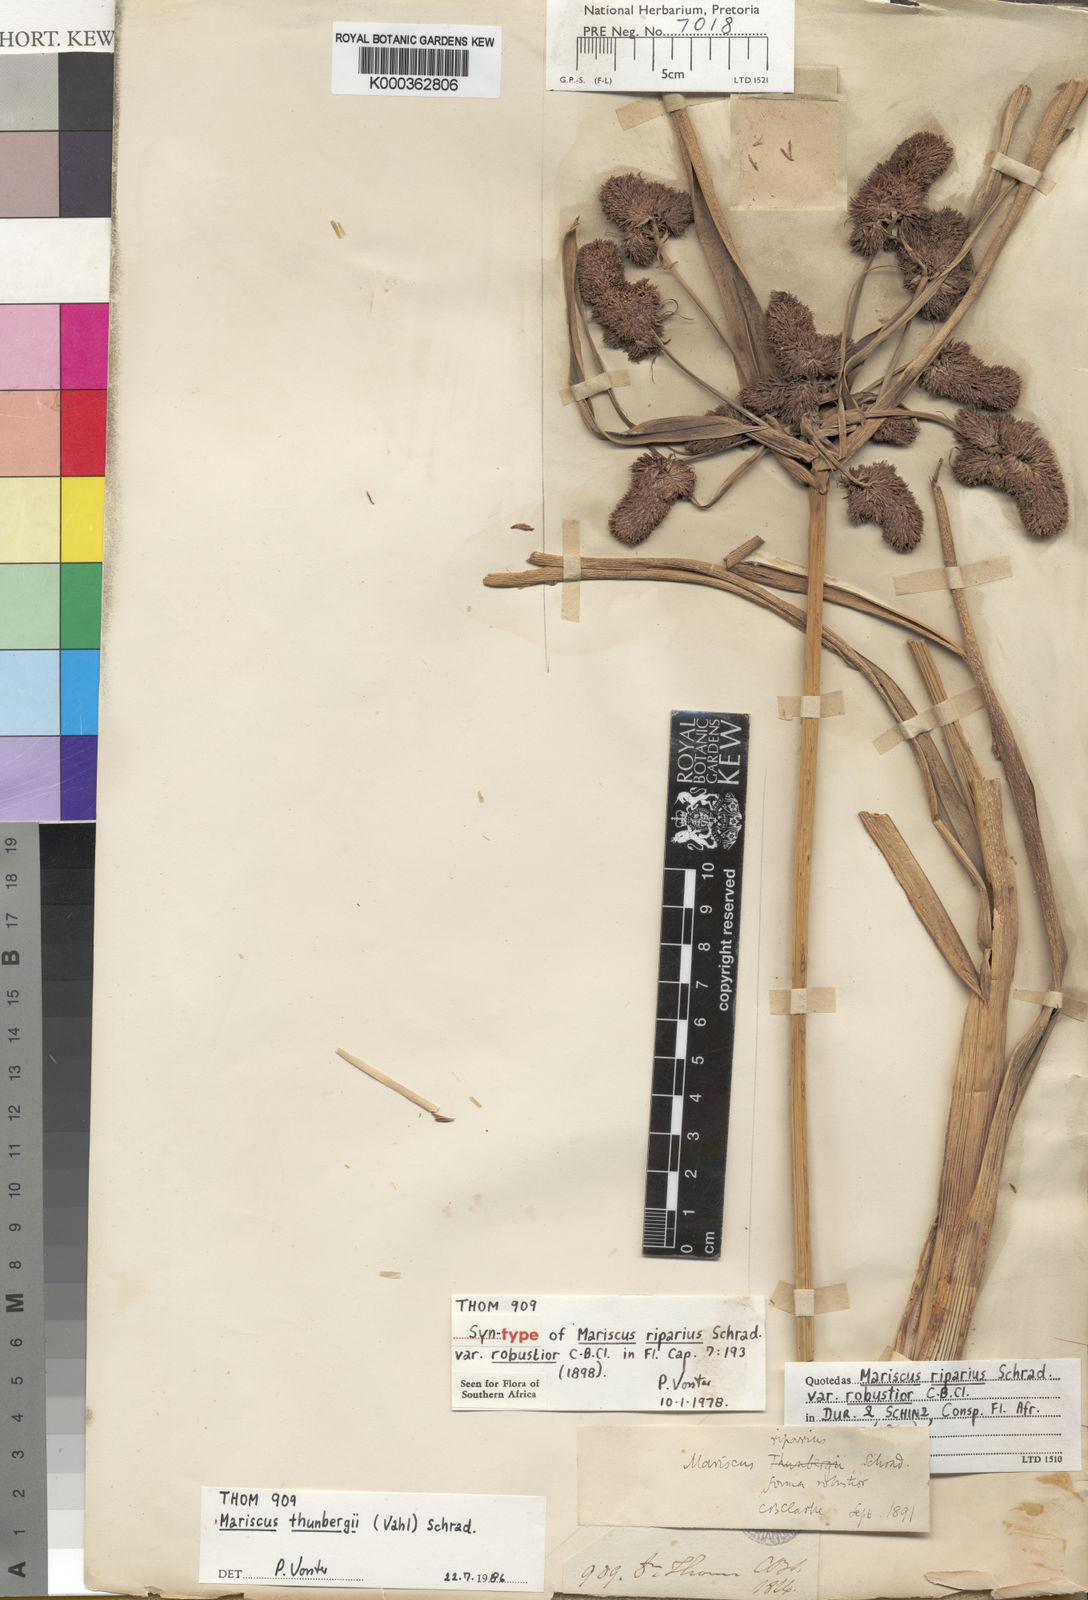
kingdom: Plantae
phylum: Tracheophyta
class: Liliopsida
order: Poales
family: Cyperaceae
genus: Cyperus
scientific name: Cyperus thunbergii
